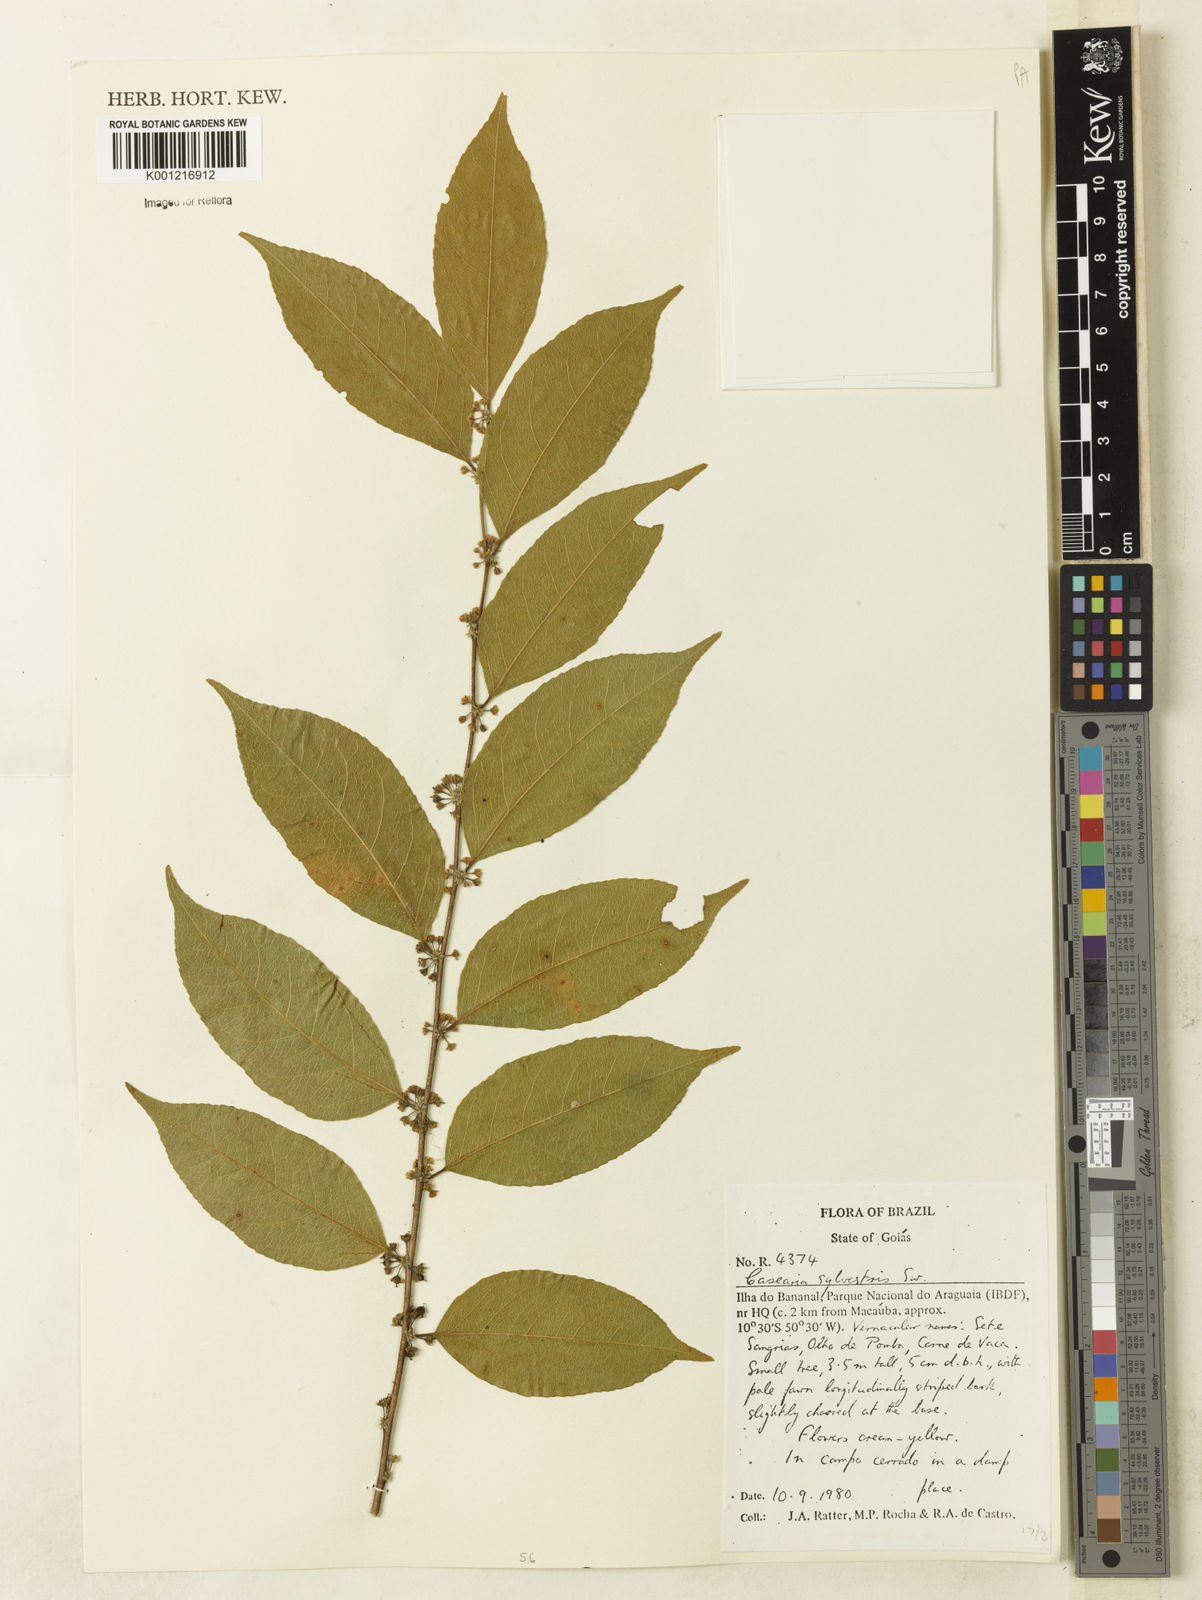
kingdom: Plantae
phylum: Tracheophyta
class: Magnoliopsida
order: Malpighiales
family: Salicaceae
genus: Casearia
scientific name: Casearia sylvestris
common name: Wild sage
